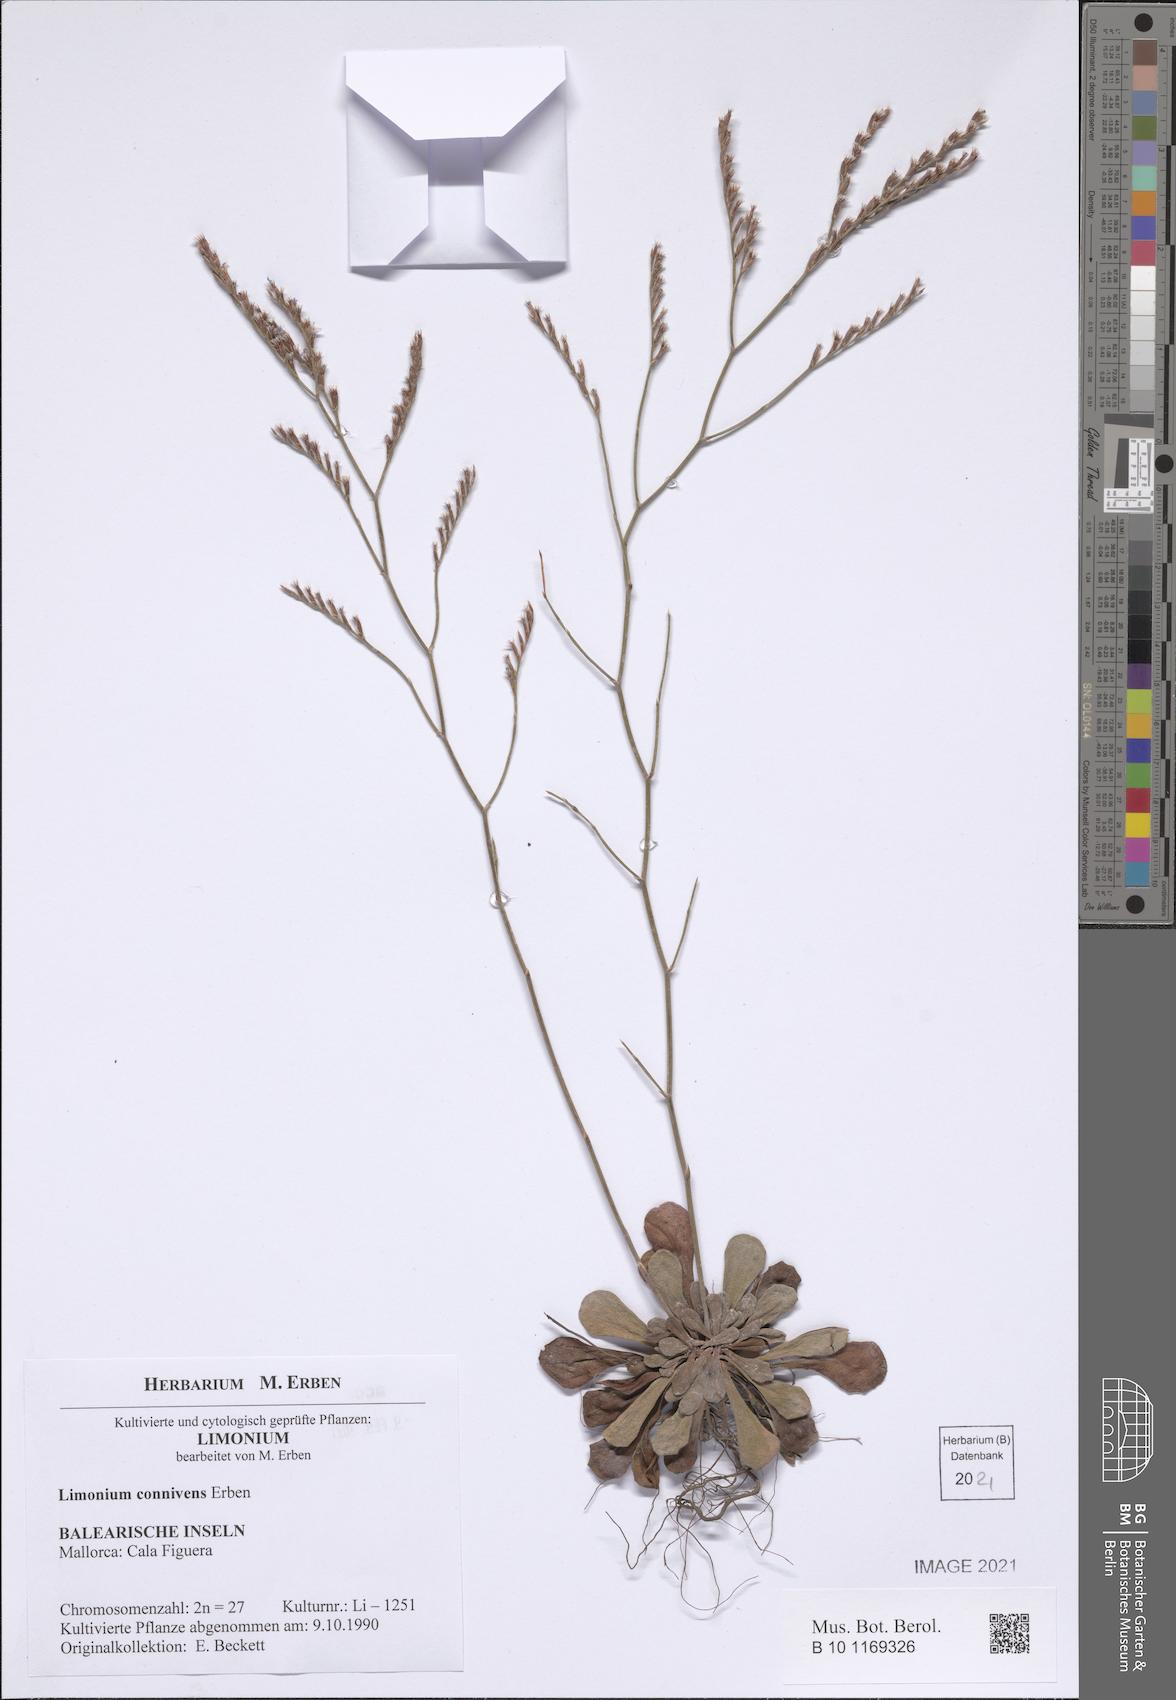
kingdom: Plantae
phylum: Tracheophyta
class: Magnoliopsida
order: Caryophyllales
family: Plumbaginaceae
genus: Limonium
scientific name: Limonium connivens
